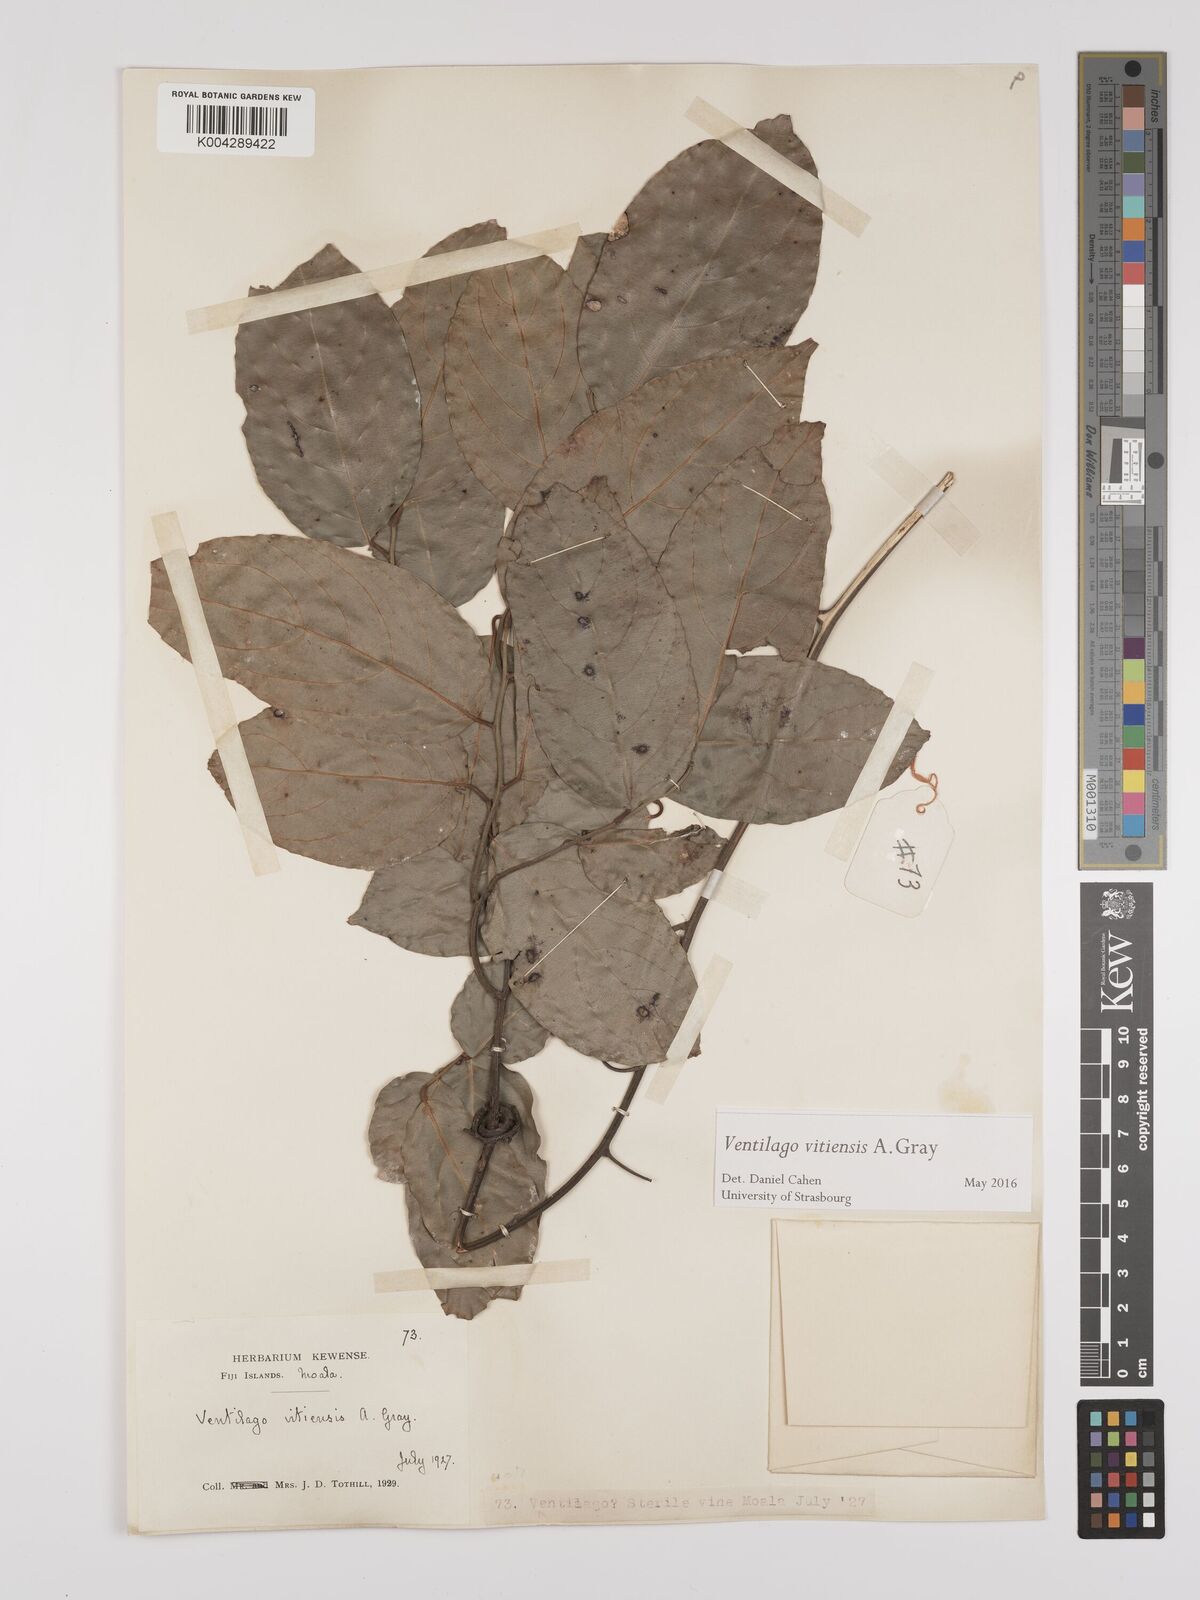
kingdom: Plantae
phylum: Tracheophyta
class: Magnoliopsida
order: Rosales
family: Rhamnaceae
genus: Ventilago
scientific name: Ventilago vitiensis
